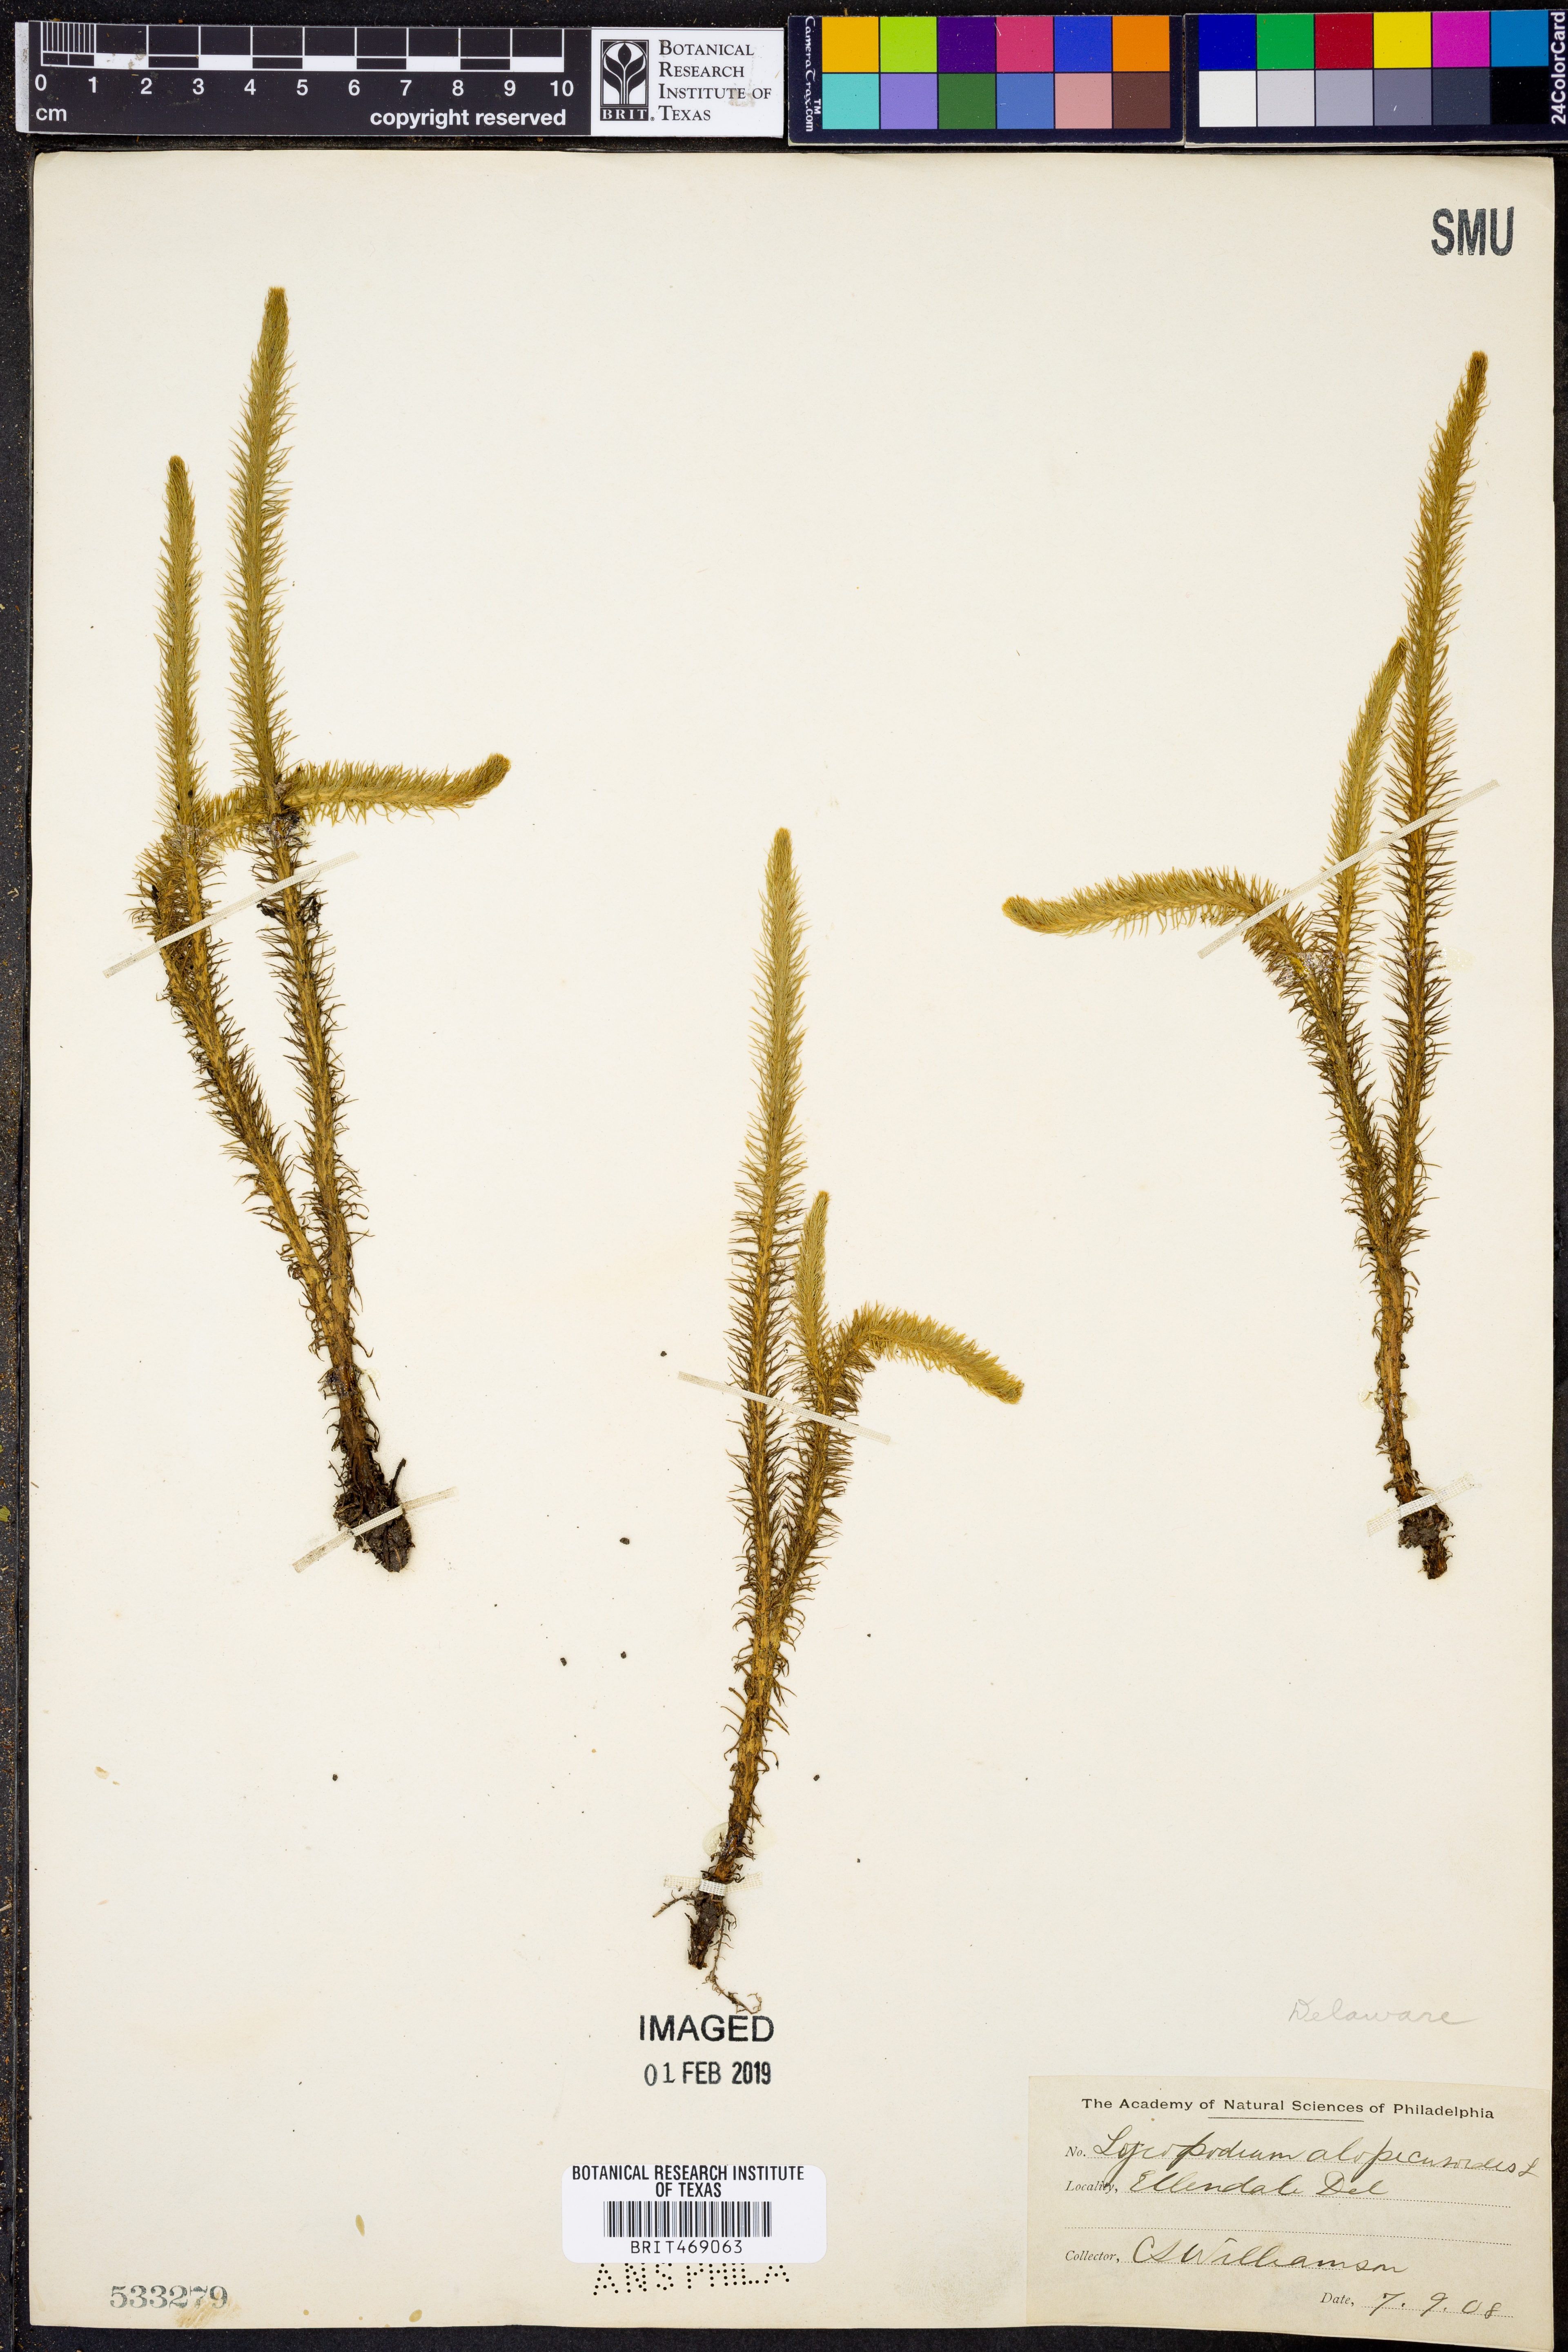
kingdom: Plantae
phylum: Tracheophyta
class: Lycopodiopsida
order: Lycopodiales
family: Lycopodiaceae
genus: Lycopodiella
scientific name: Lycopodiella alopecuroides
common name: Foxtail clubmoss
